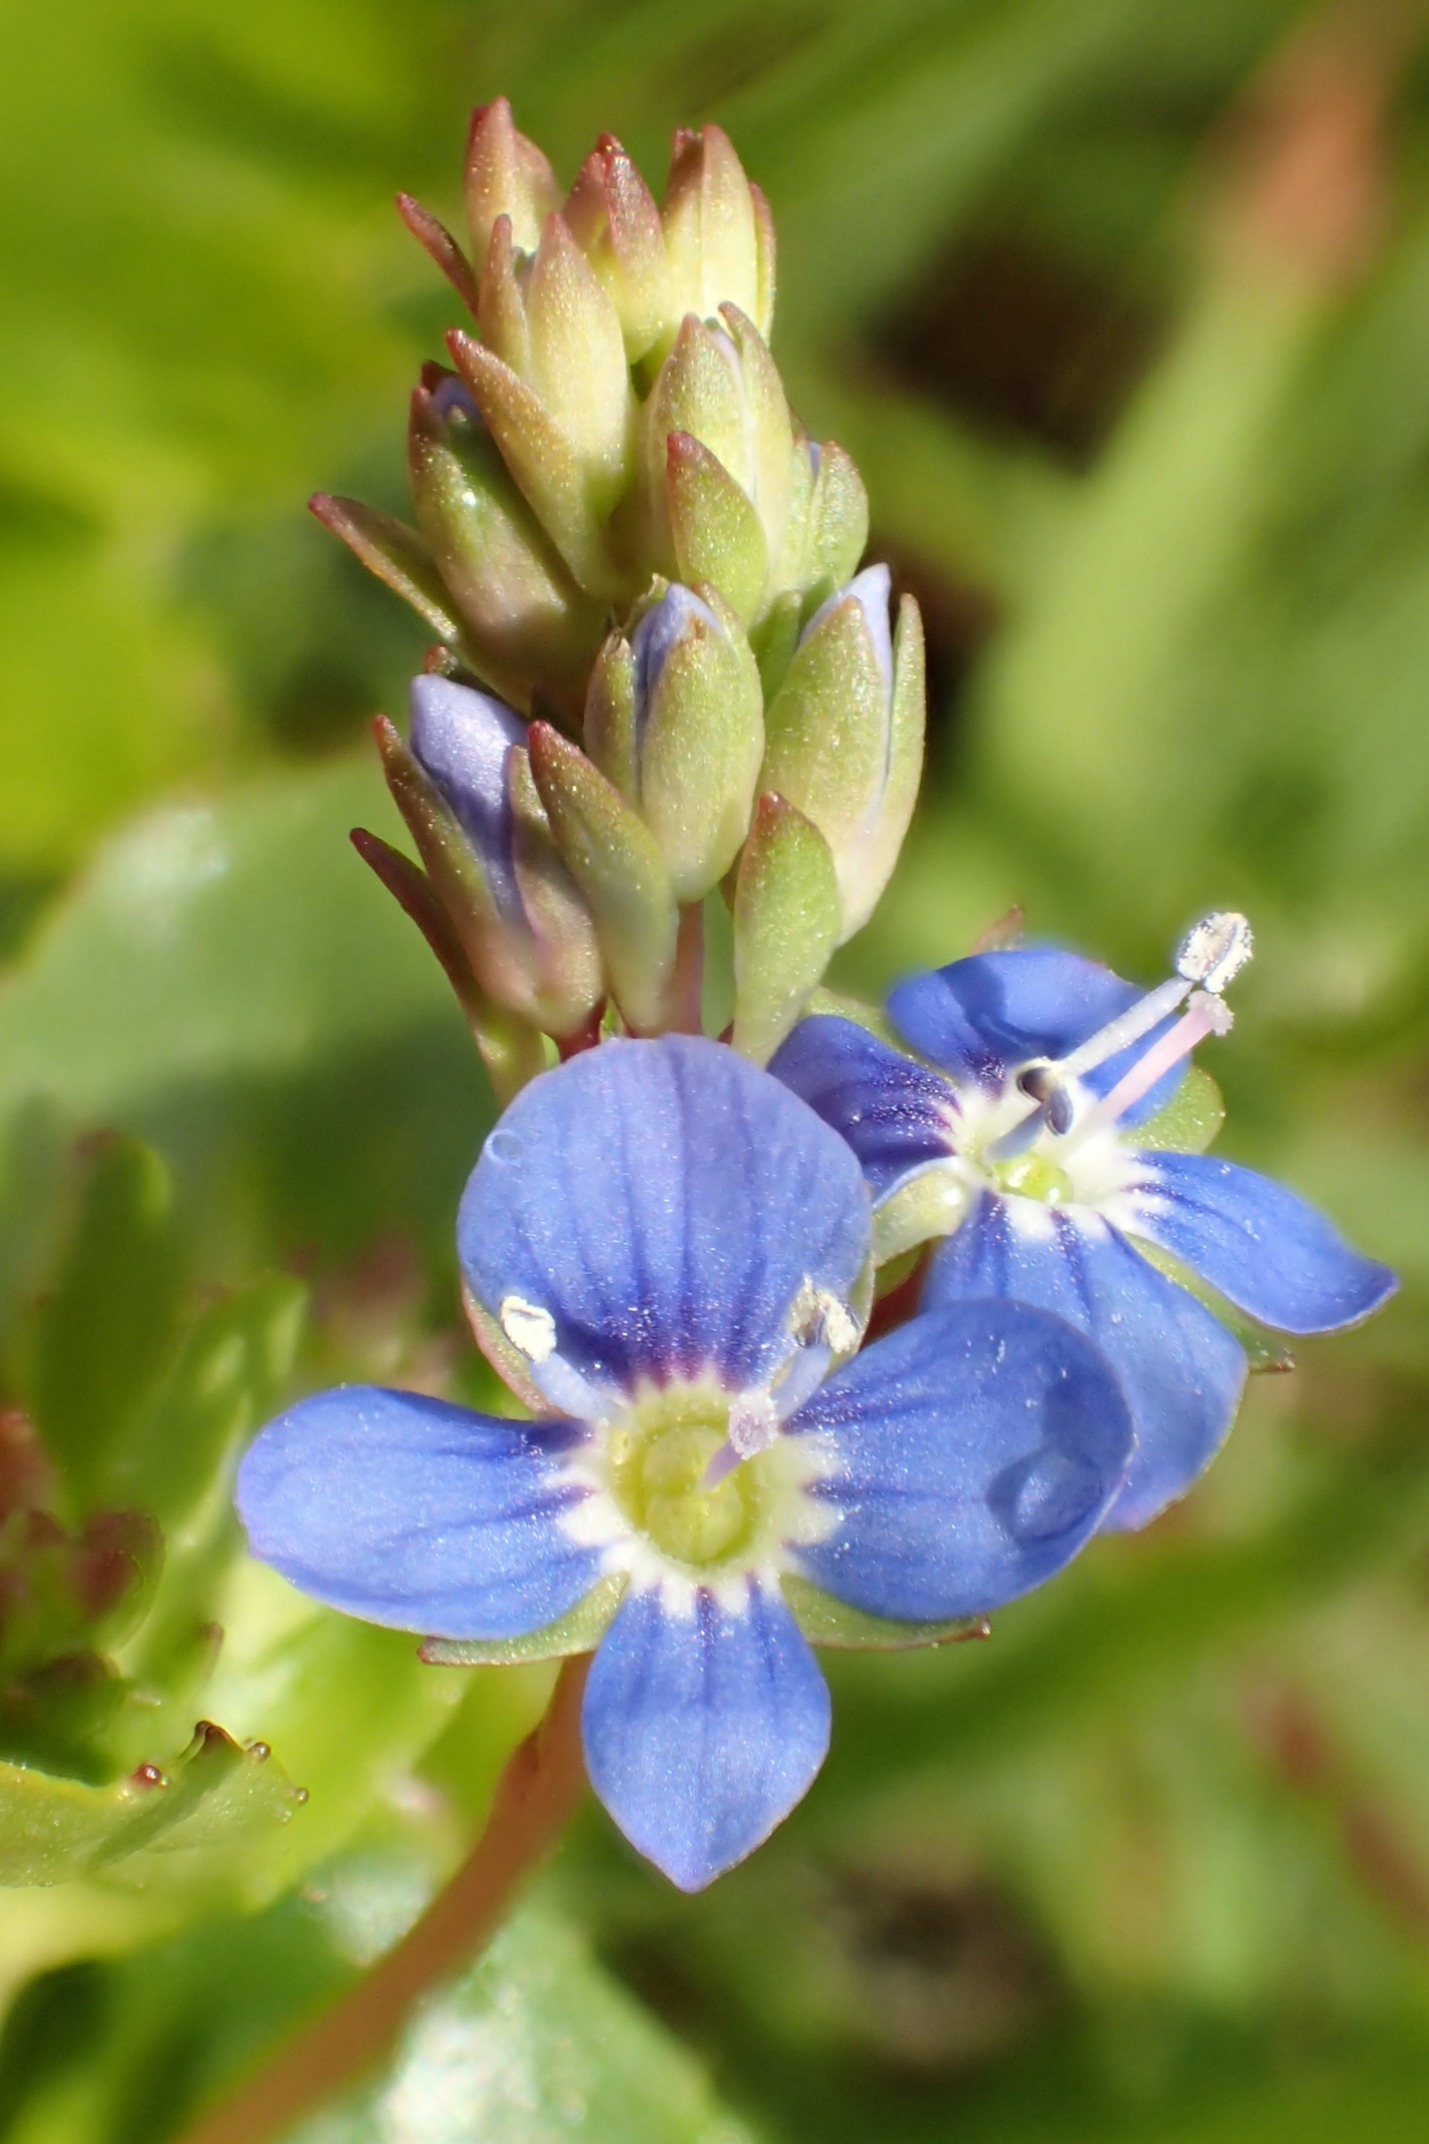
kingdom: Plantae
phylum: Tracheophyta
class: Magnoliopsida
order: Lamiales
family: Plantaginaceae
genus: Veronica
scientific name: Veronica beccabunga
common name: Tykbladet ærenpris
